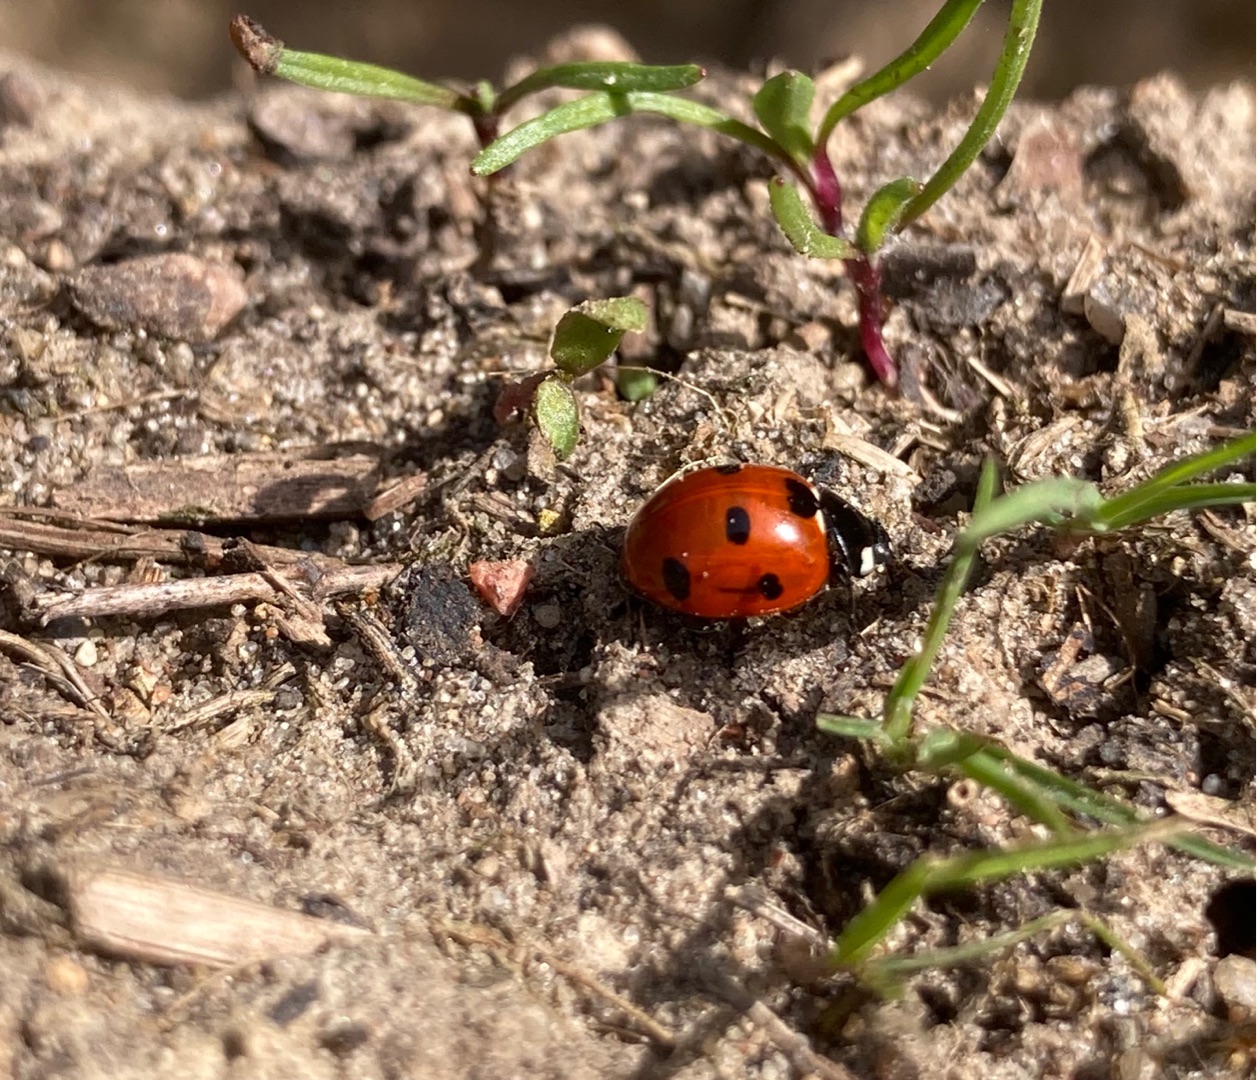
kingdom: Animalia
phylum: Arthropoda
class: Insecta
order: Coleoptera
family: Coccinellidae
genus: Coccinella
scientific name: Coccinella septempunctata
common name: Syvplettet mariehøne
